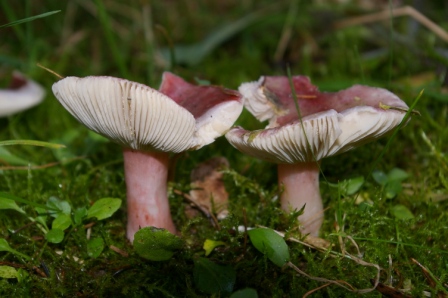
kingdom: Fungi
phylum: Basidiomycota
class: Agaricomycetes
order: Russulales
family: Russulaceae
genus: Russula
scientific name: Russula queletii
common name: Quélets skørhat
